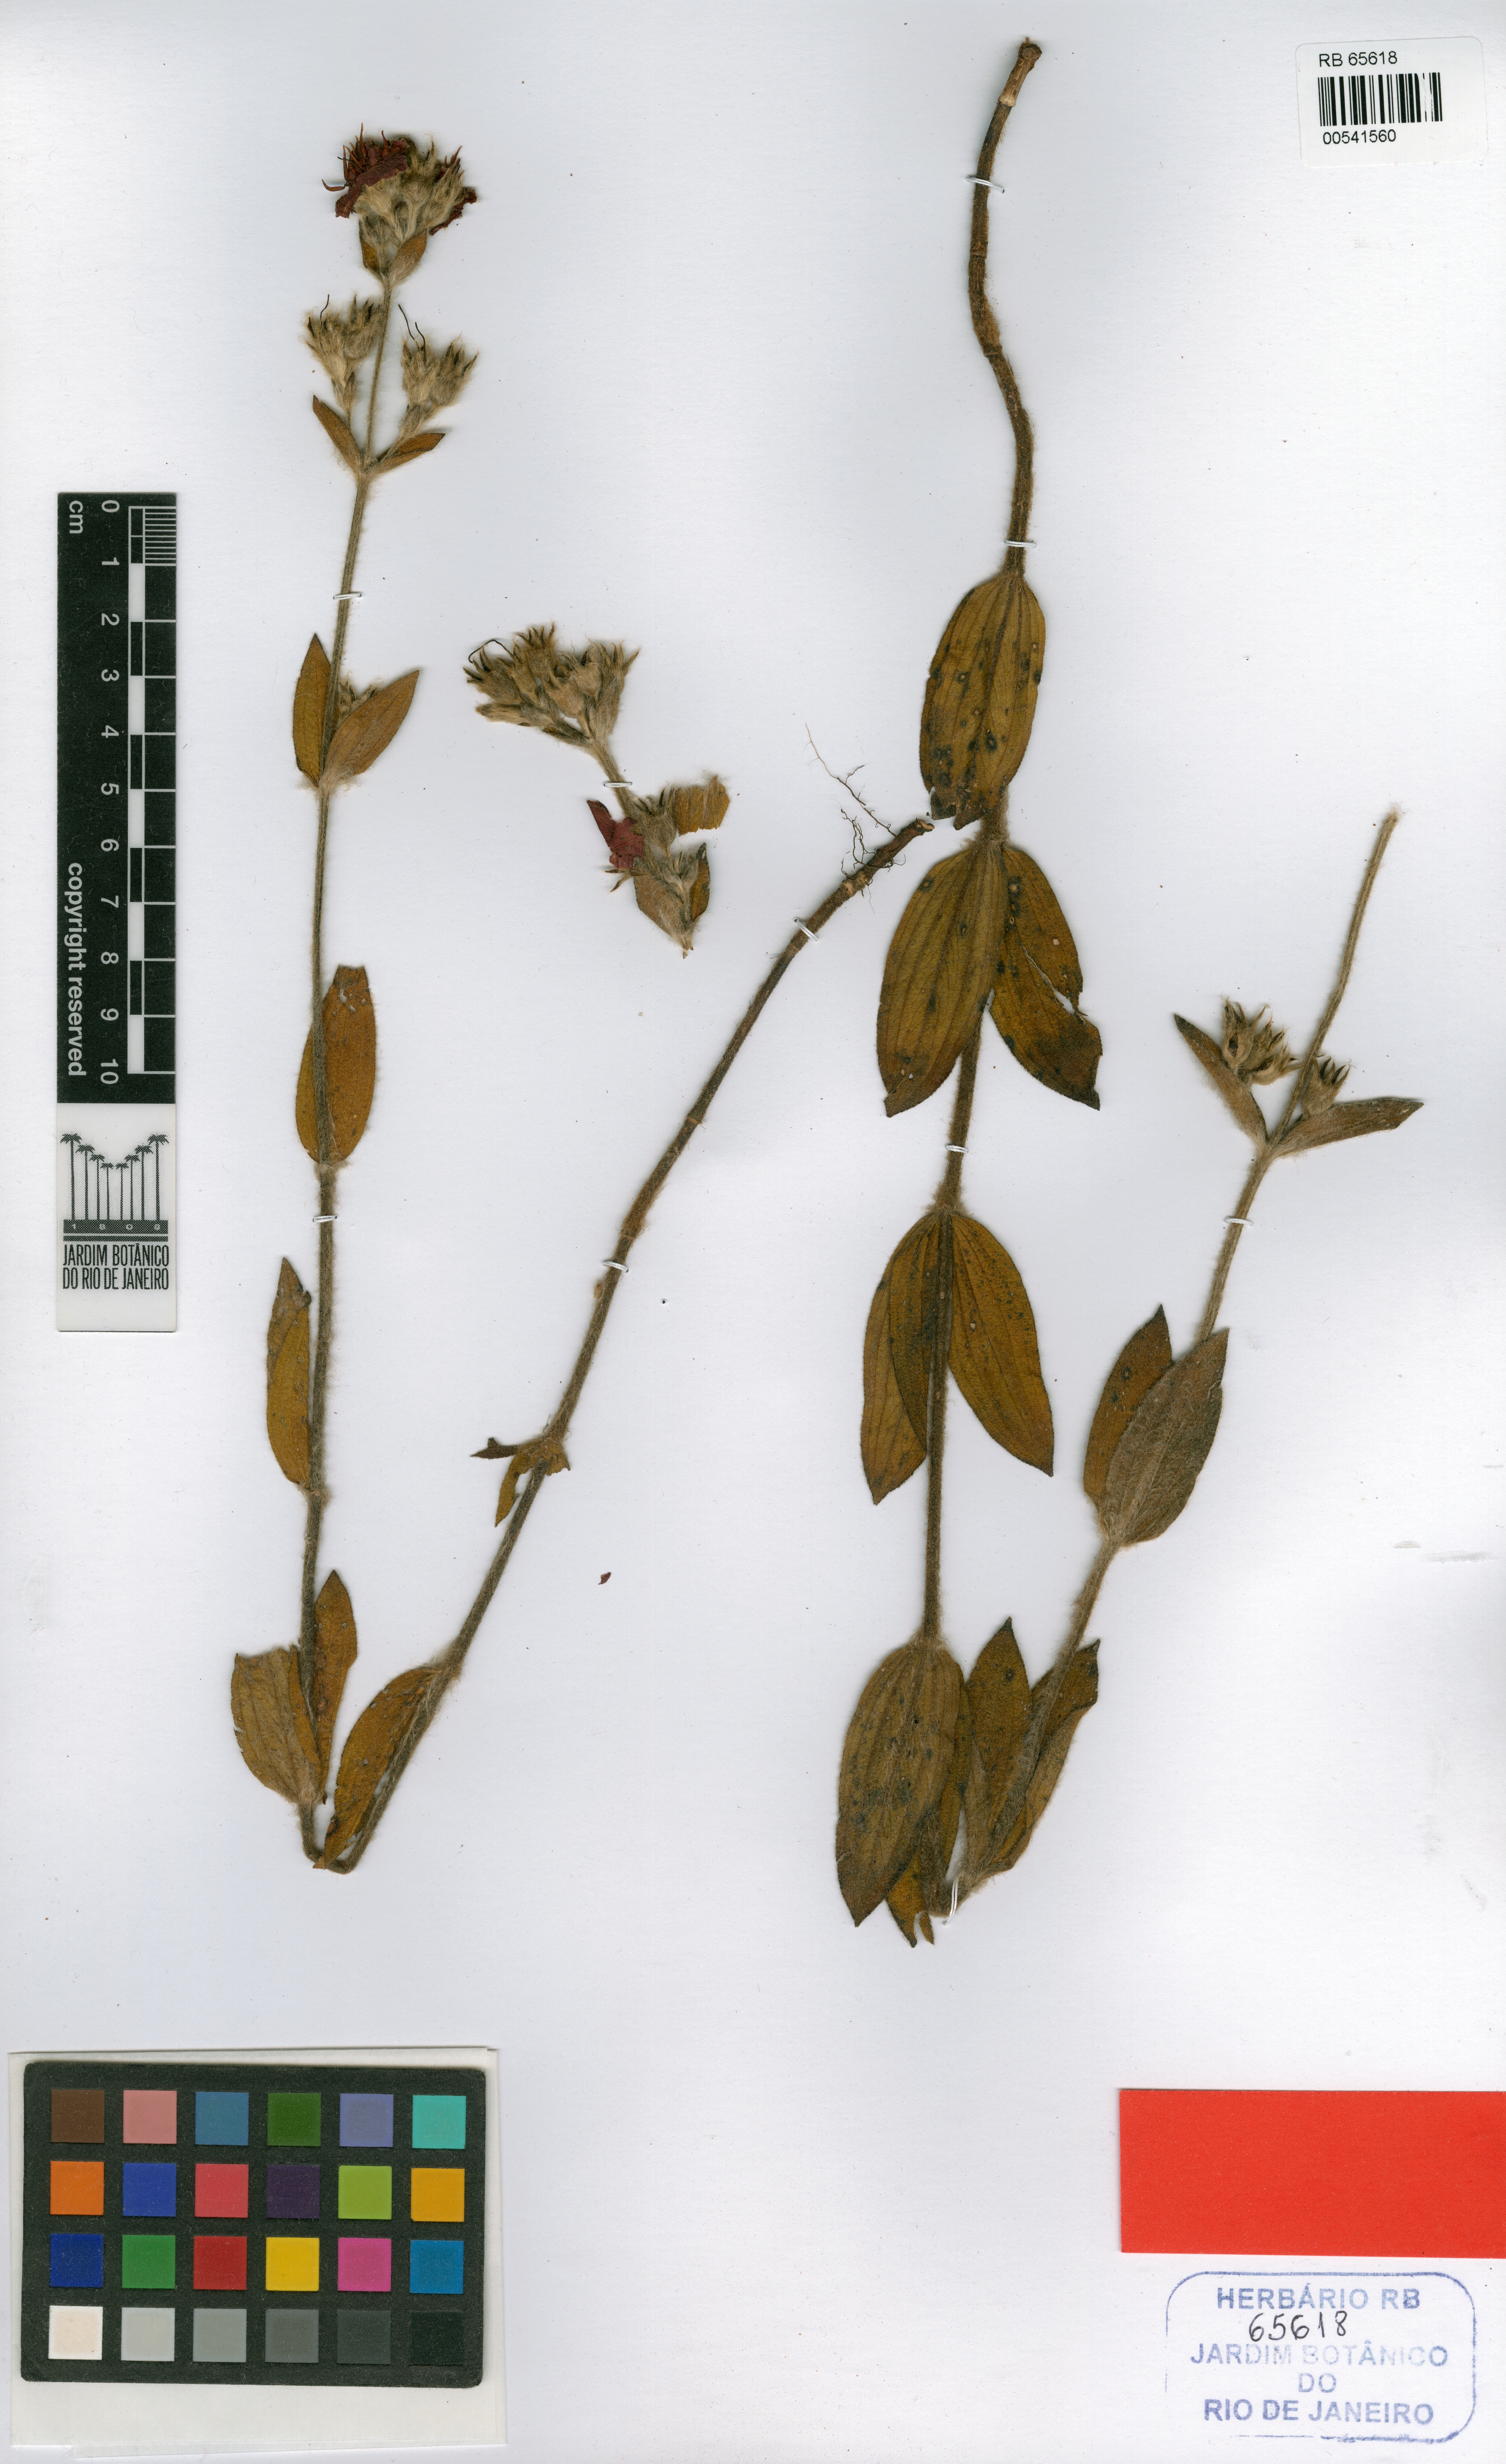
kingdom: Plantae
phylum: Tracheophyta
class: Magnoliopsida
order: Myrtales
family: Melastomataceae
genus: Chaetogastra
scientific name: Chaetogastra hassleri
